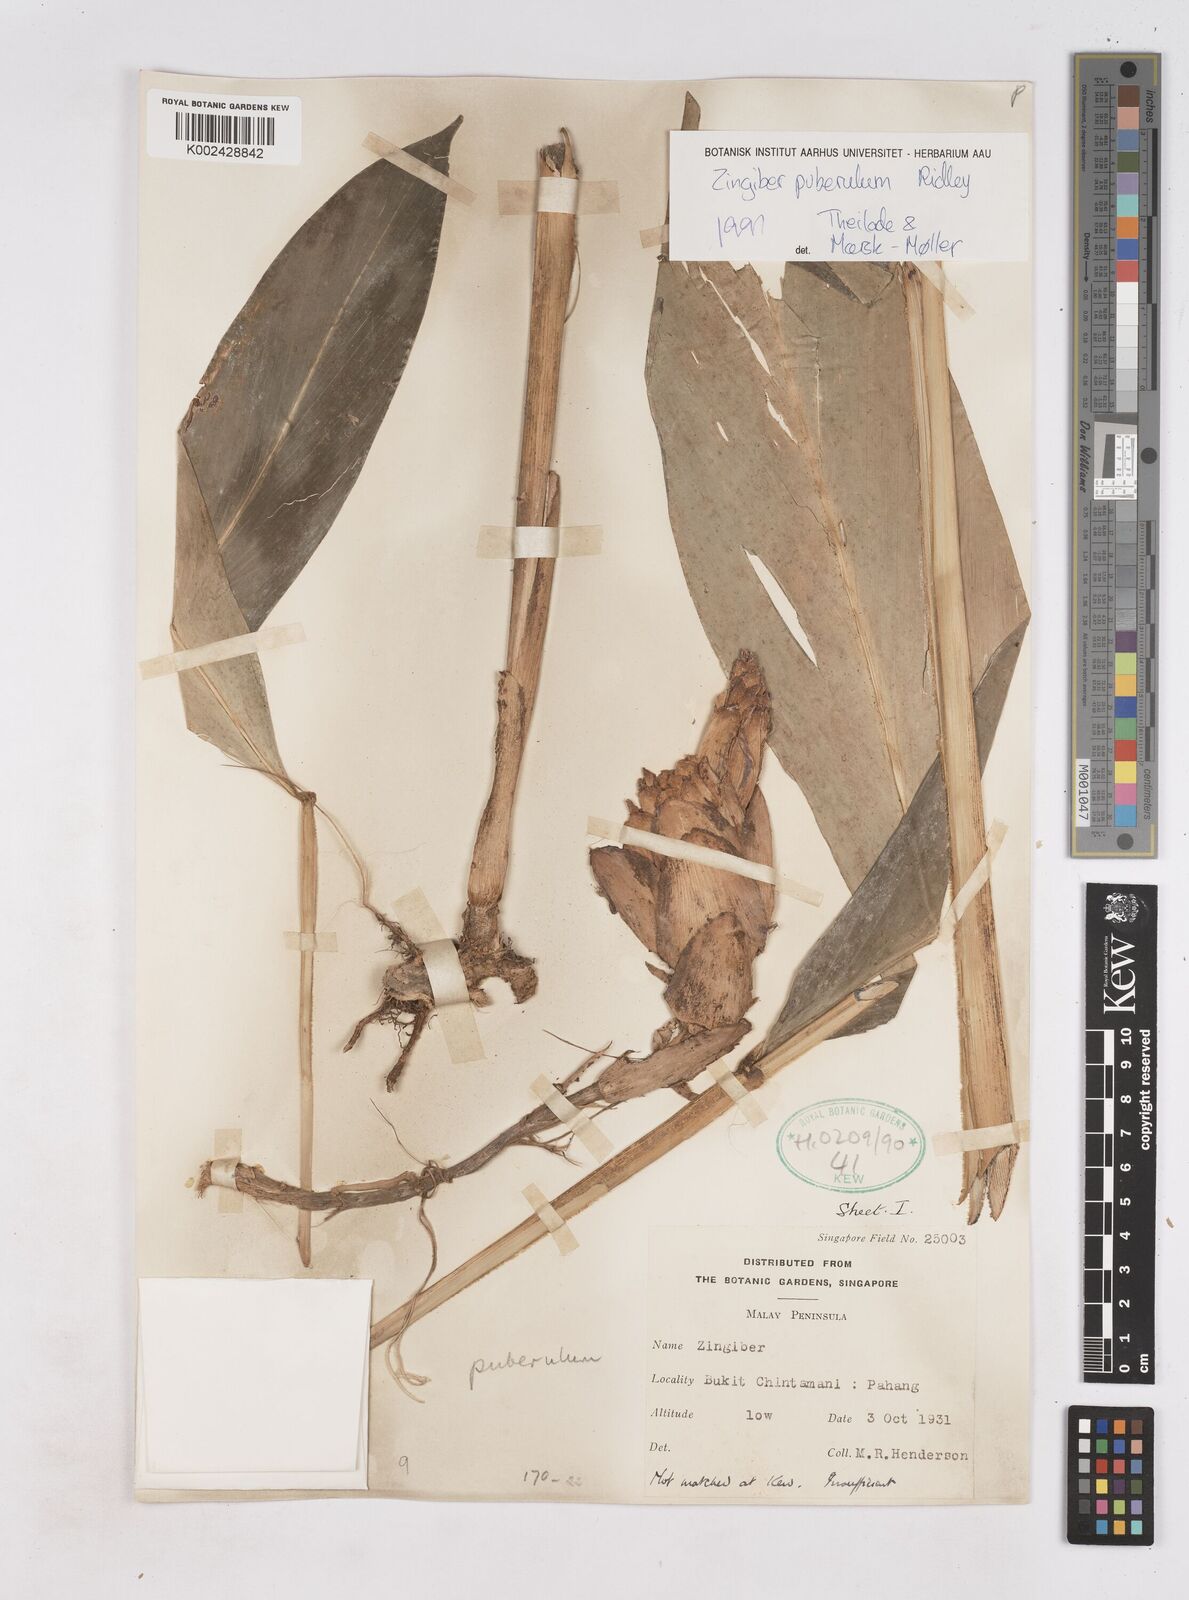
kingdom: Plantae
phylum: Tracheophyta
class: Liliopsida
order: Zingiberales
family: Zingiberaceae
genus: Zingiber
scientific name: Zingiber puberulum
